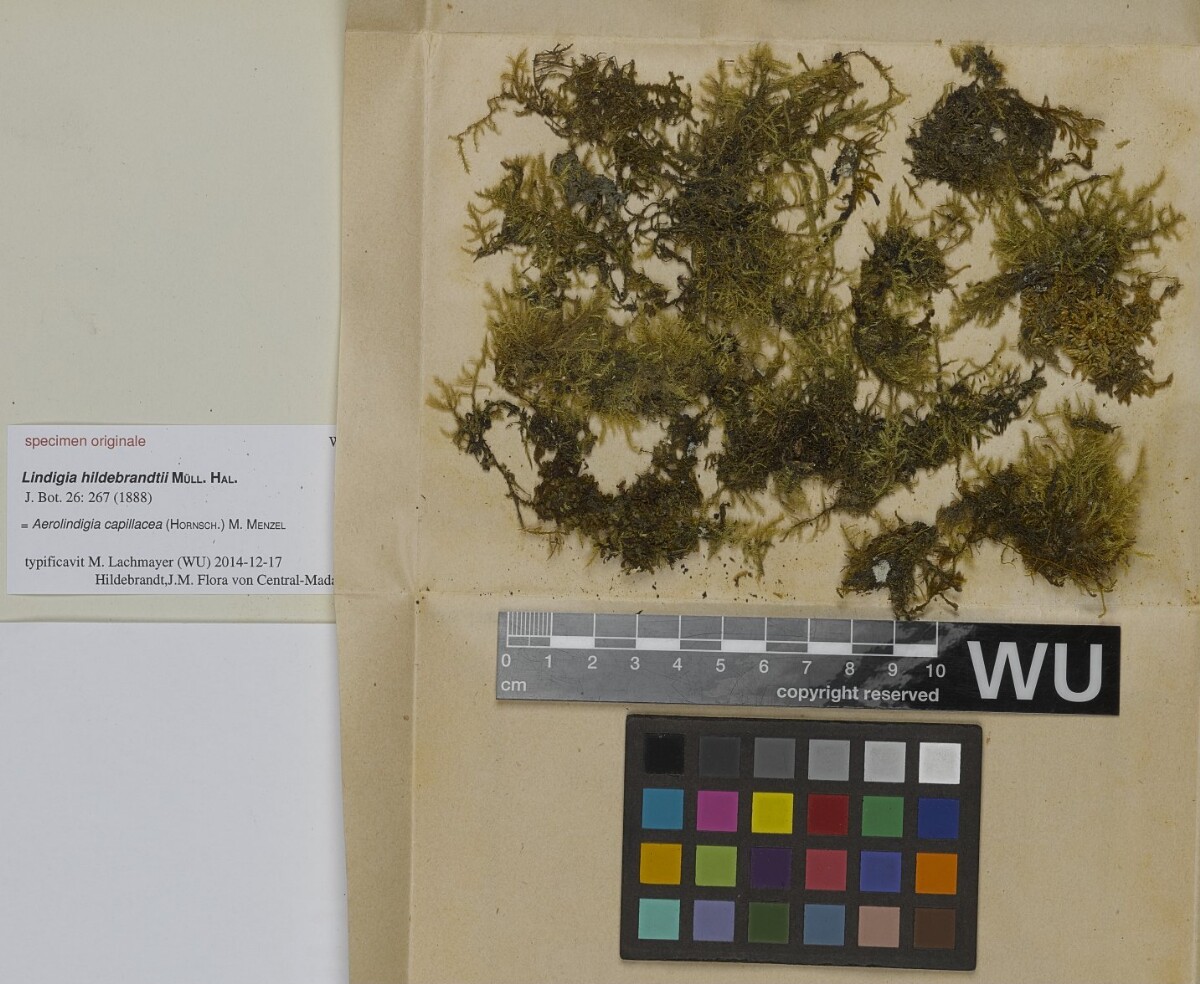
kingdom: Plantae
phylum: Bryophyta
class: Bryopsida
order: Hypnales
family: Brachytheciaceae
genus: Aerolindigia
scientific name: Aerolindigia capillacea
